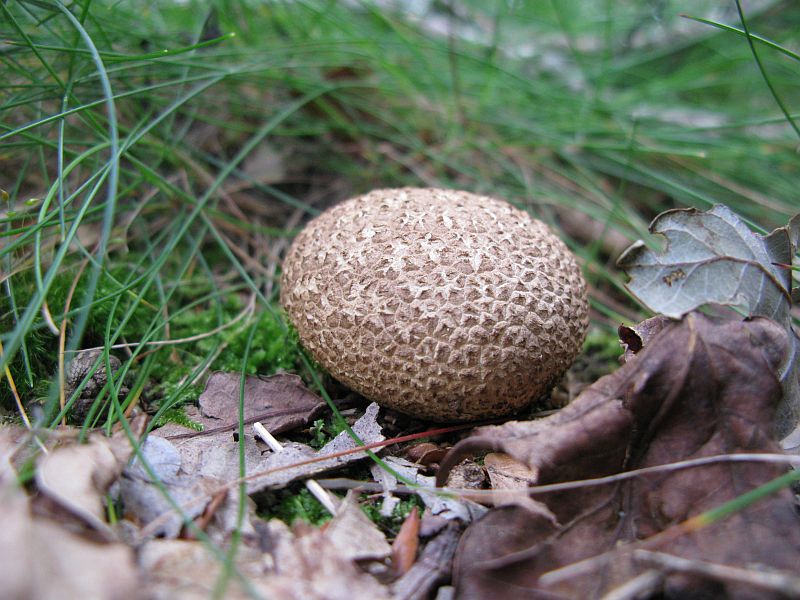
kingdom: Fungi
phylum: Basidiomycota
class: Agaricomycetes
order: Boletales
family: Sclerodermataceae
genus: Scleroderma
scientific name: Scleroderma citrinum
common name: almindelig bruskbold
